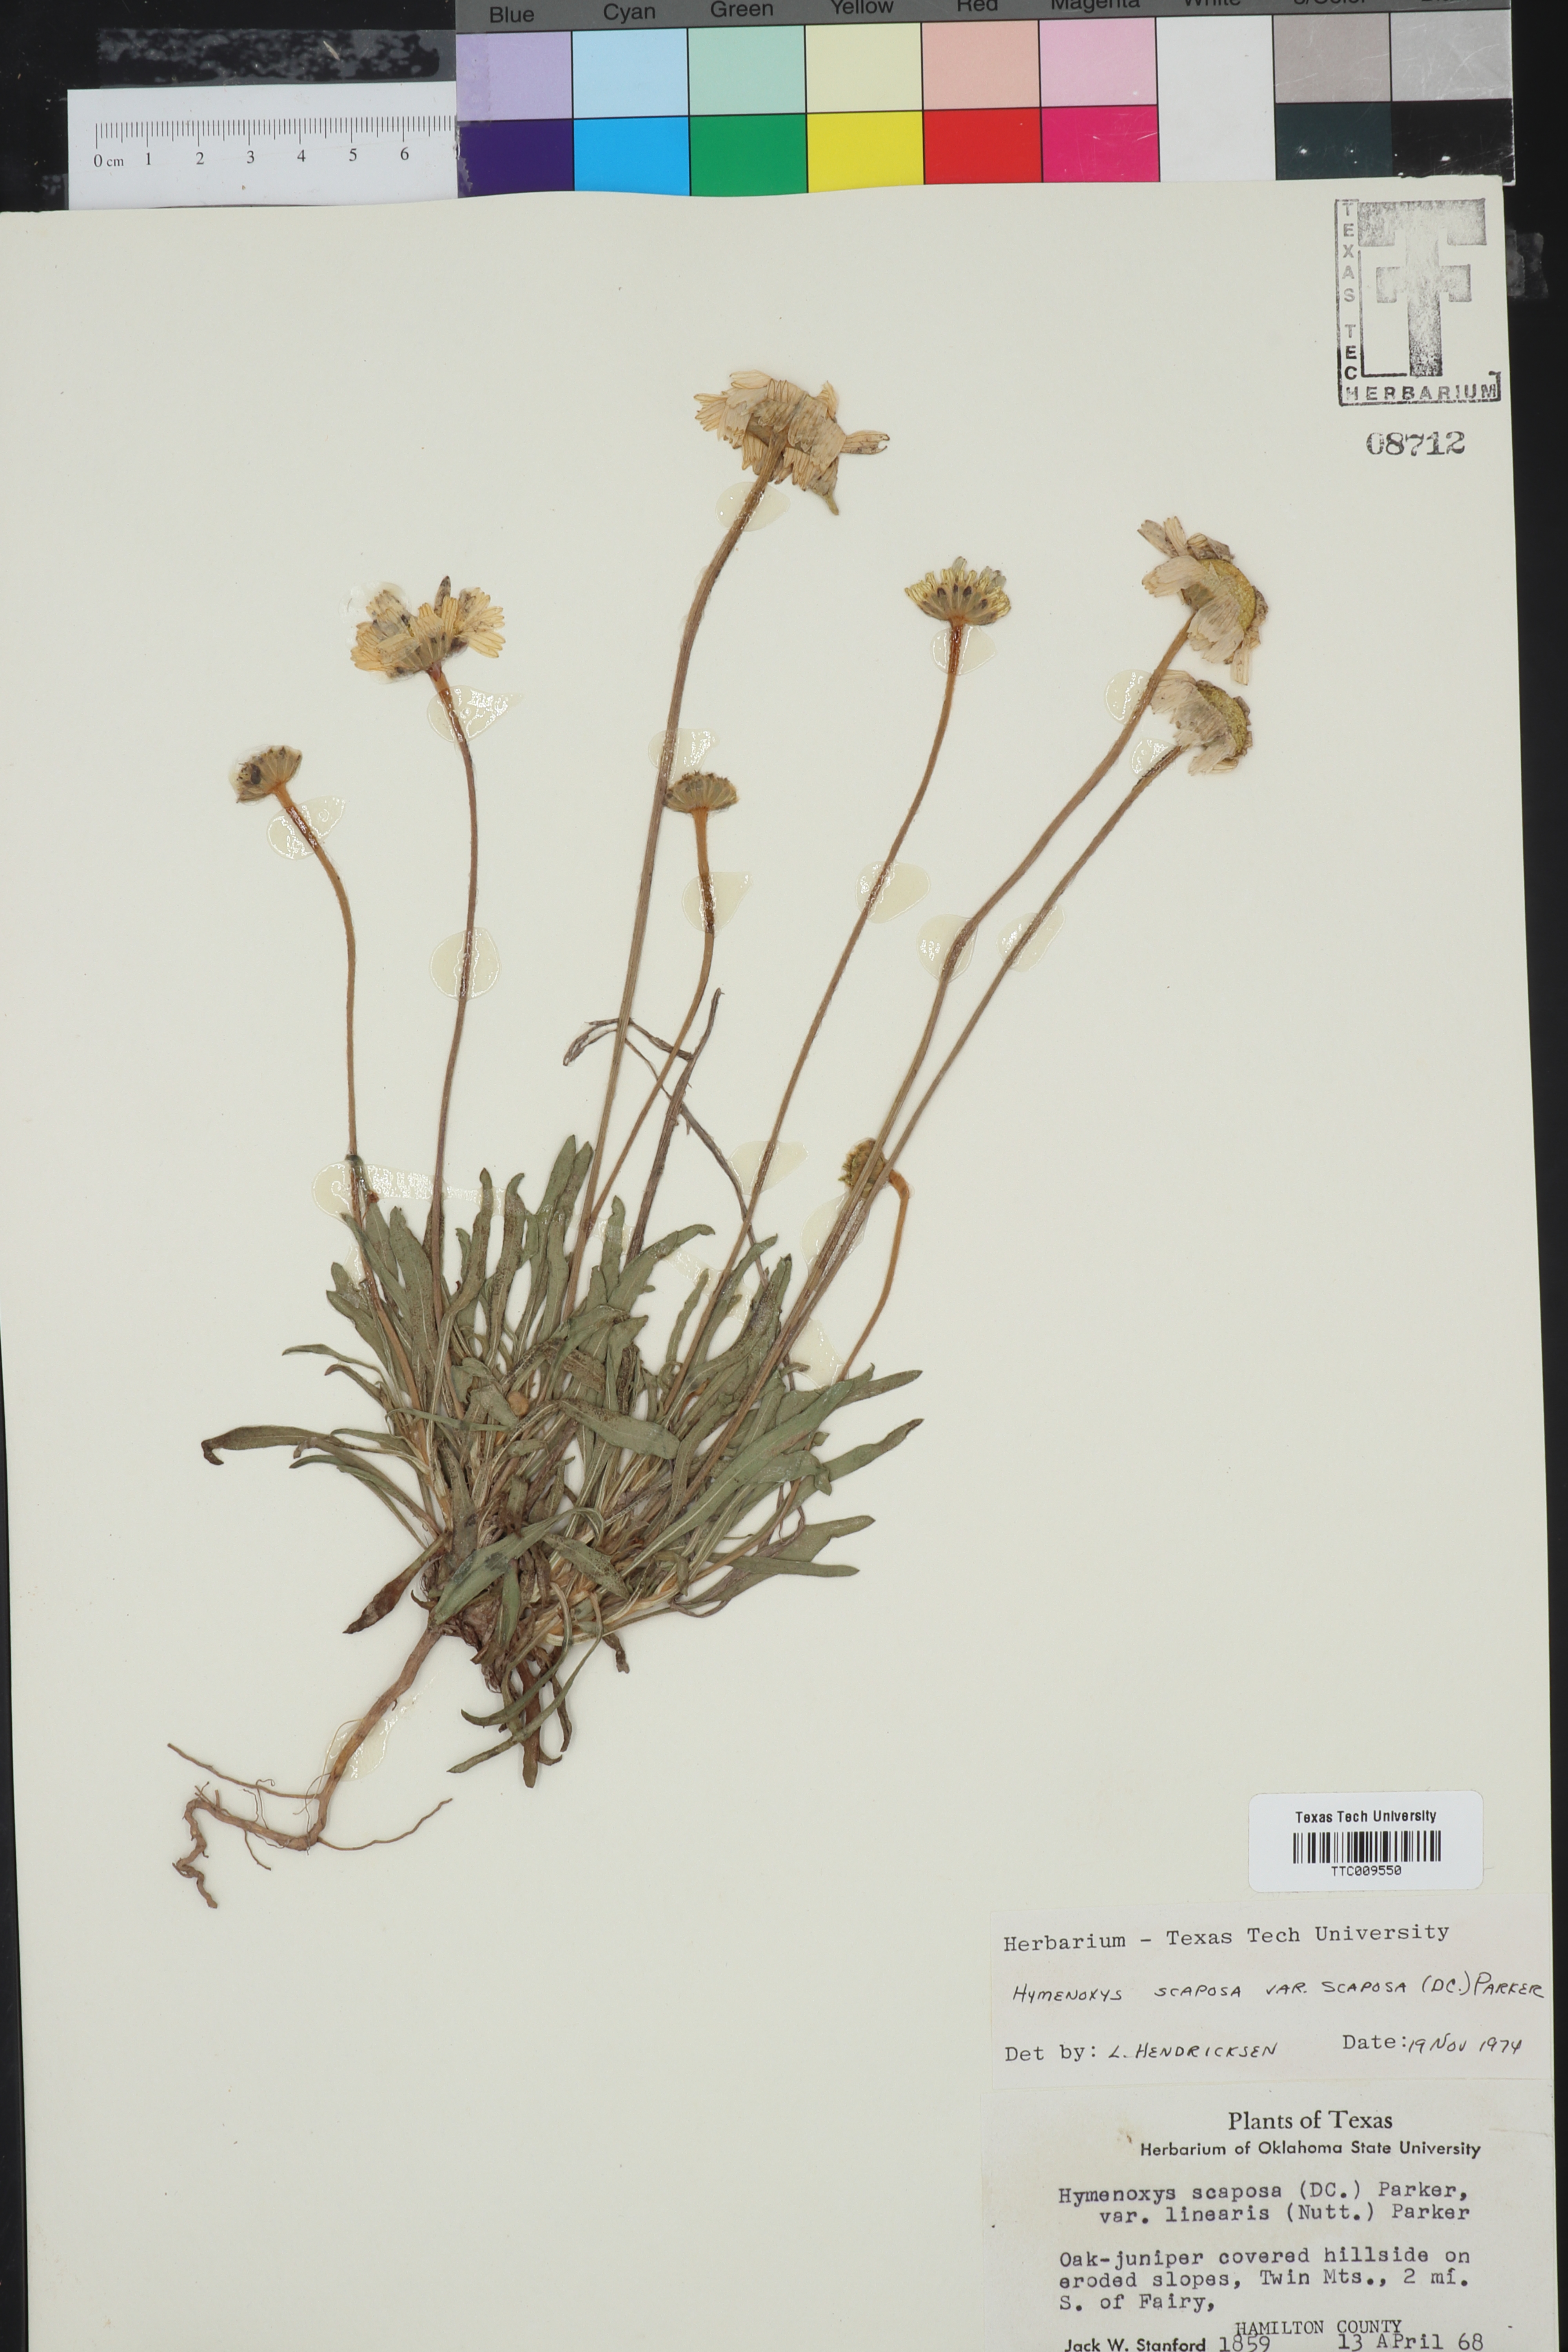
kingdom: Plantae
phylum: Tracheophyta
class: Magnoliopsida
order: Asterales
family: Asteraceae
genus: Tetraneuris
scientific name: Tetraneuris scaposa
